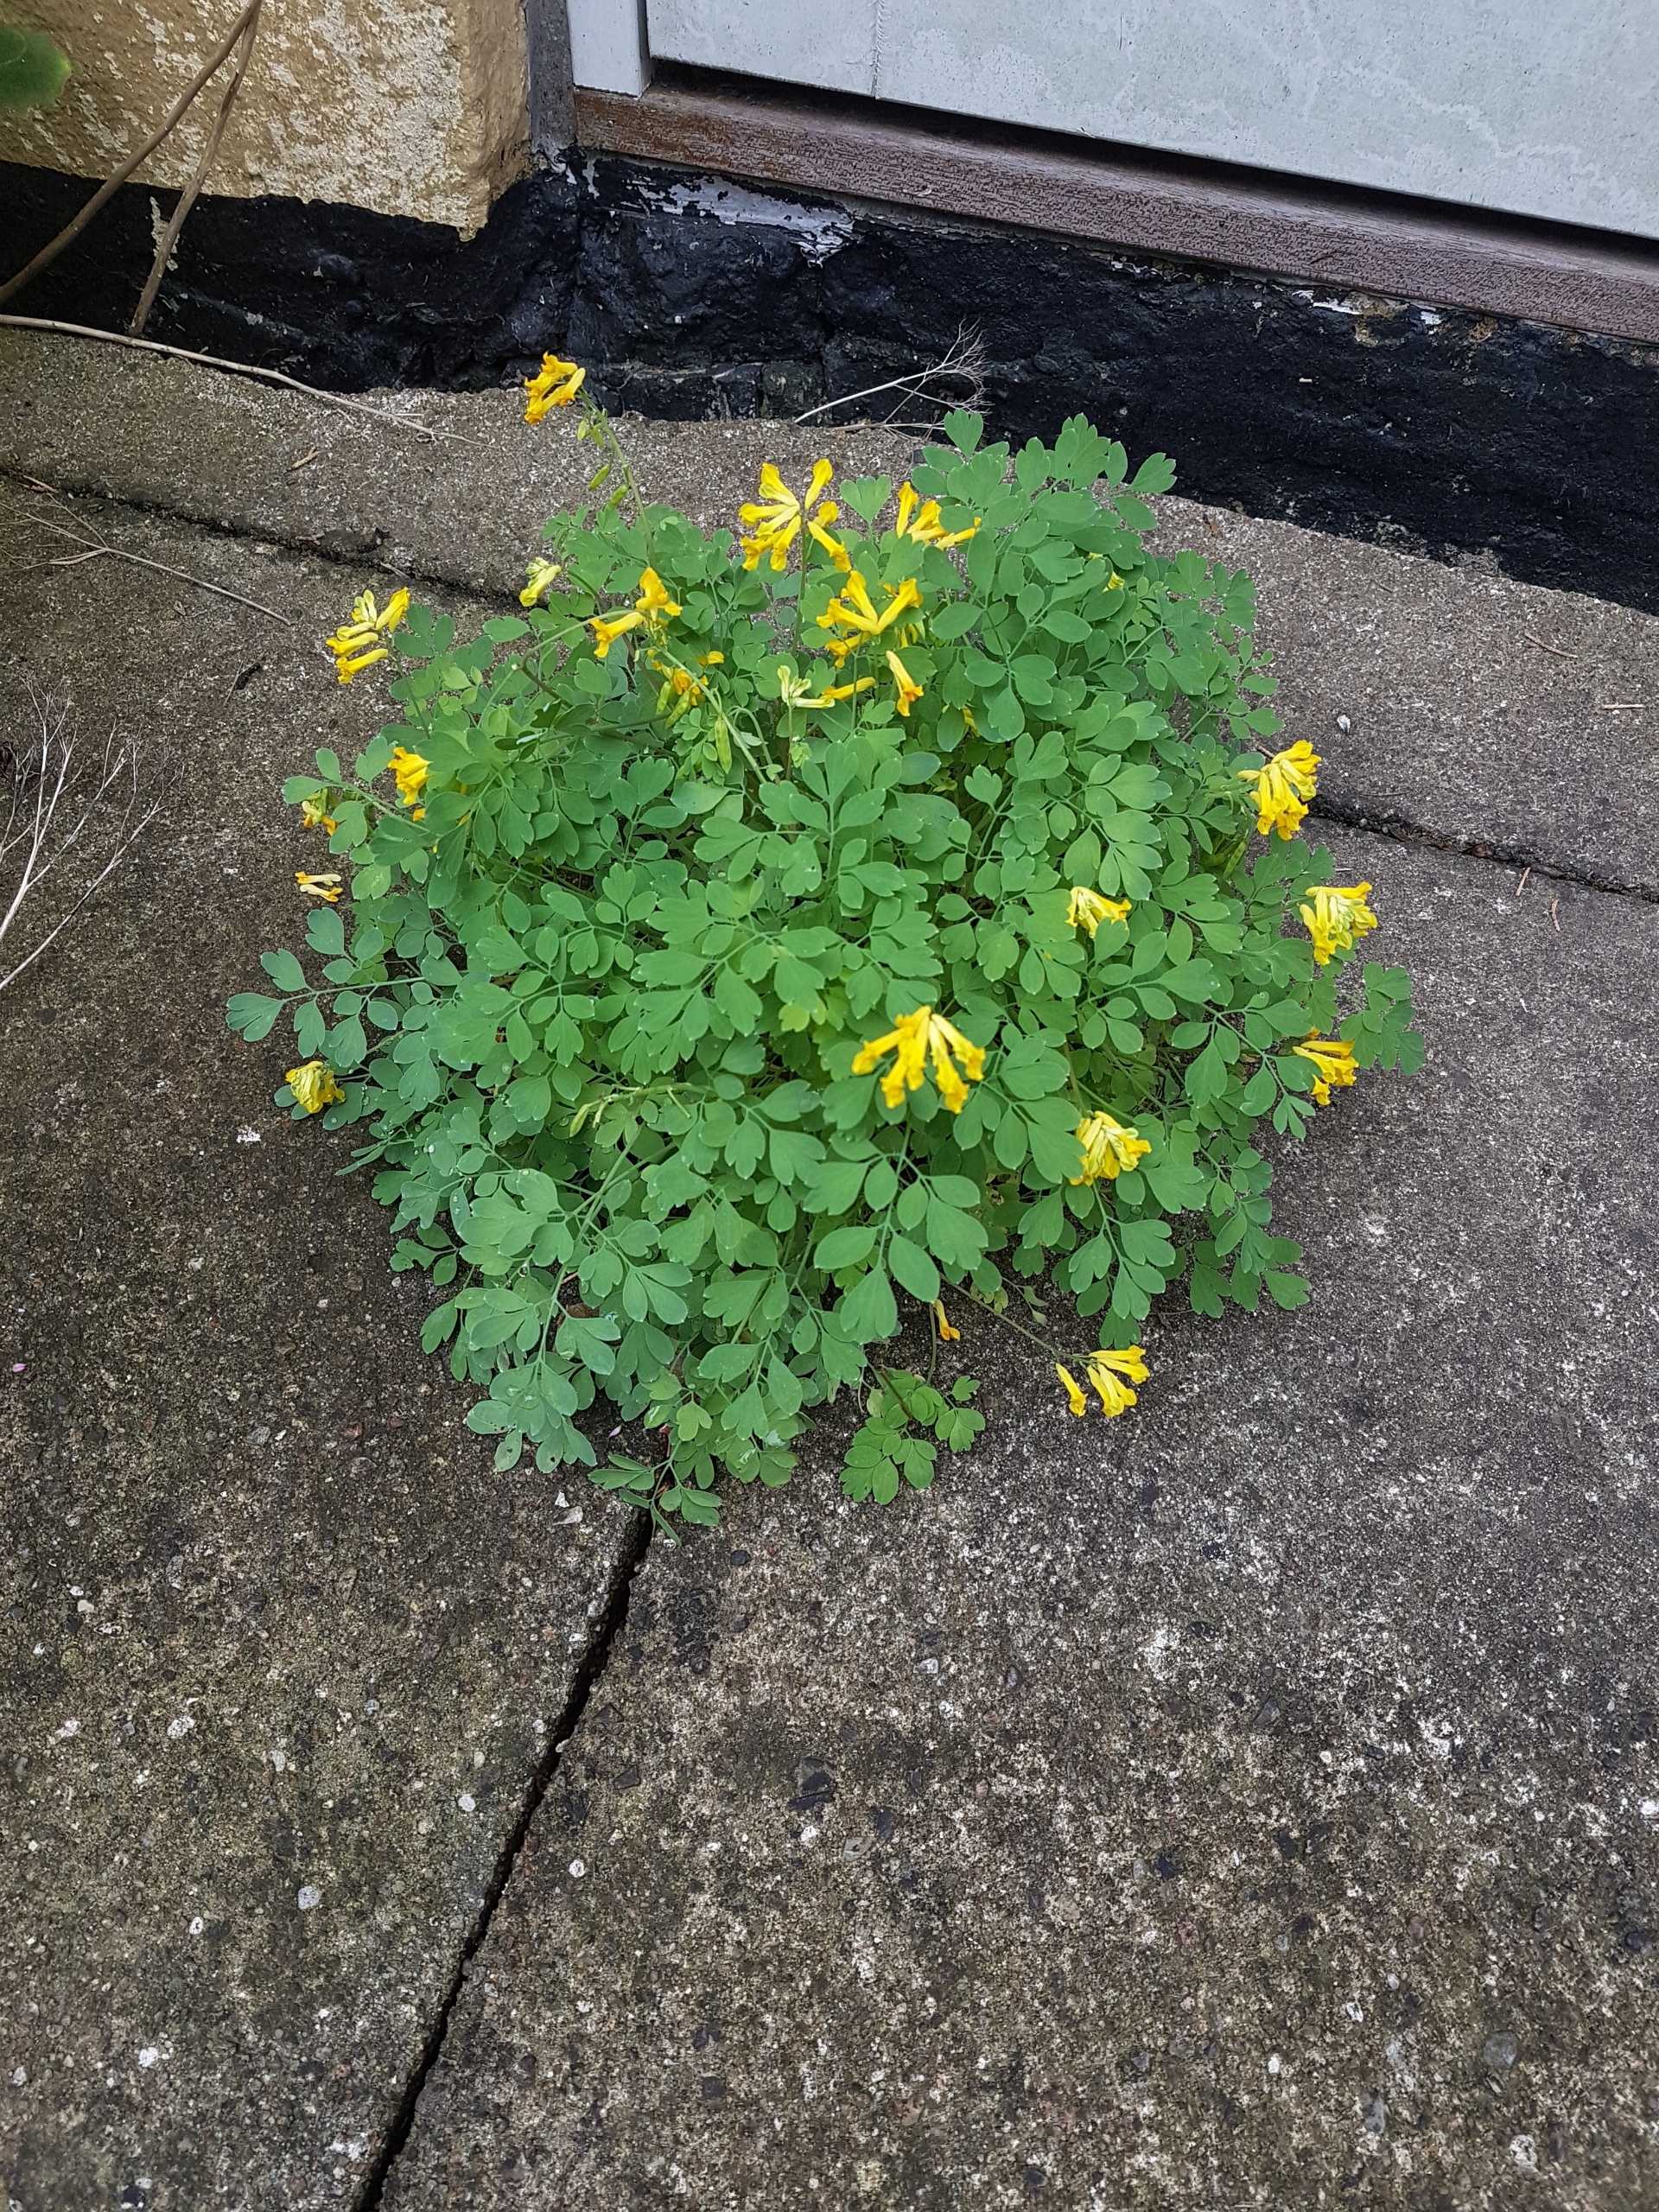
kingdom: Plantae
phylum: Tracheophyta
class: Magnoliopsida
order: Ranunculales
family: Papaveraceae
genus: Pseudofumaria
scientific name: Pseudofumaria lutea
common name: Gul lærkespore
